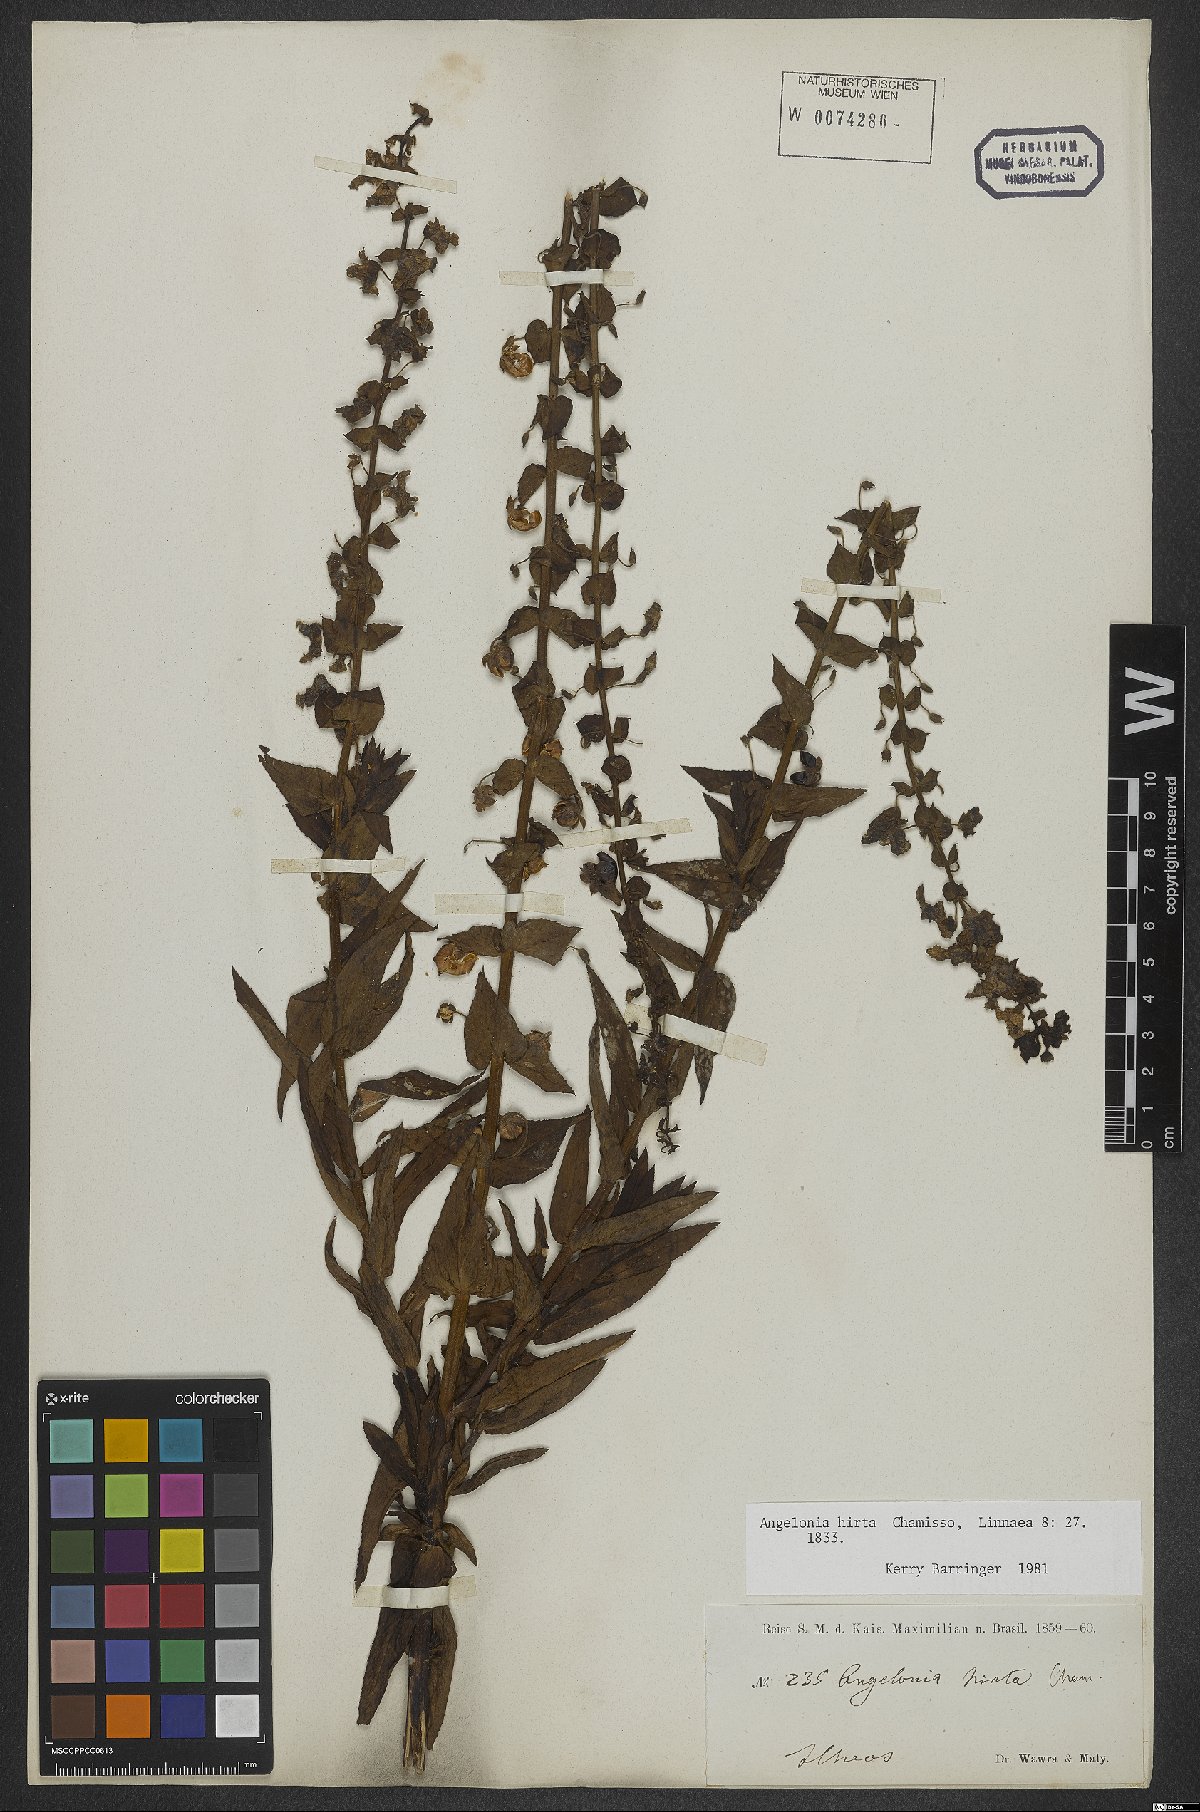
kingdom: Plantae
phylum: Tracheophyta
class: Magnoliopsida
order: Lamiales
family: Plantaginaceae
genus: Angelonia
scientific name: Angelonia salicariifolia
